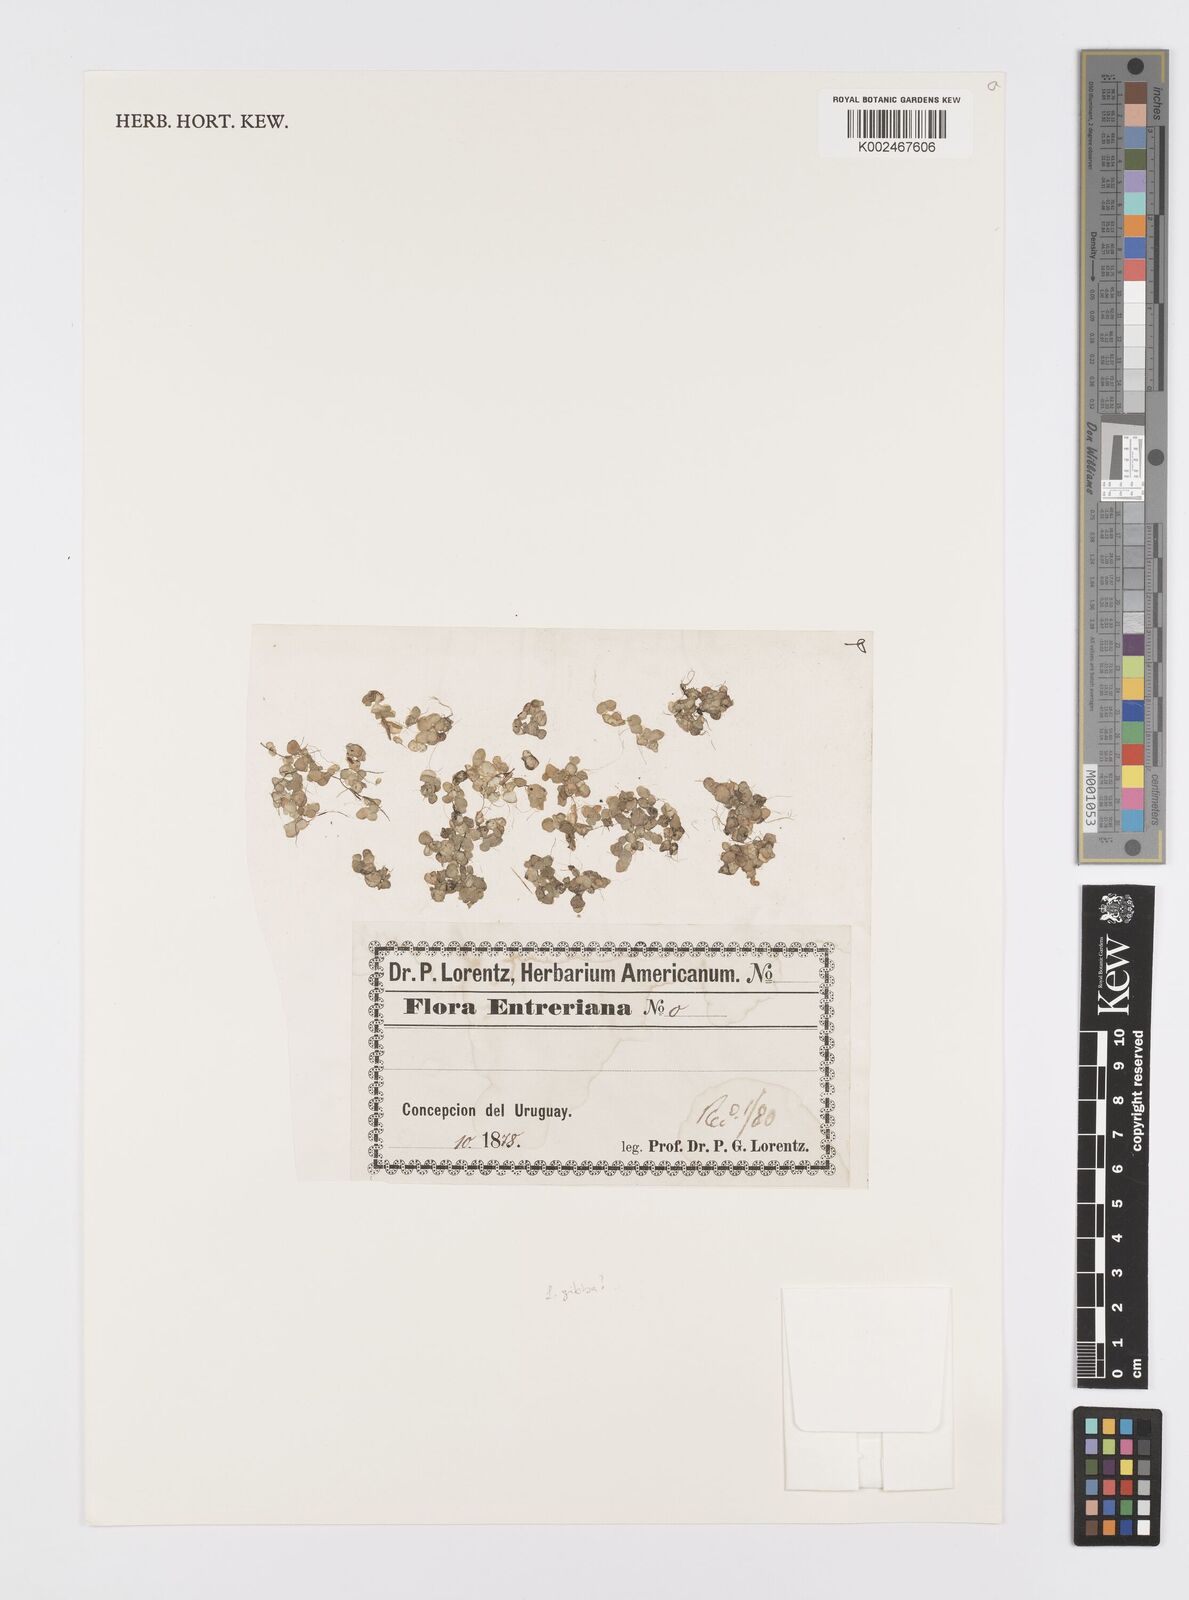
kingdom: Plantae
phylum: Tracheophyta
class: Liliopsida
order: Alismatales
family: Araceae
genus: Spirodela
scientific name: Spirodela
